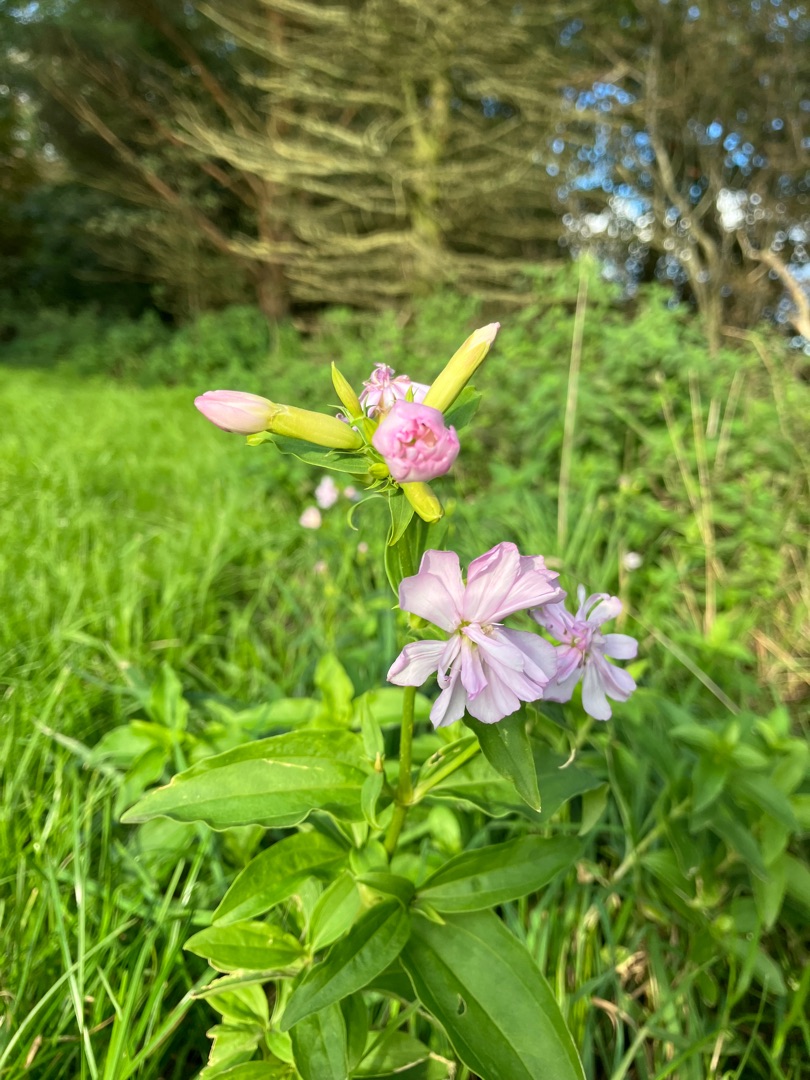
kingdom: Plantae
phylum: Tracheophyta
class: Magnoliopsida
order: Caryophyllales
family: Caryophyllaceae
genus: Saponaria
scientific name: Saponaria officinalis
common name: Sæbeurt
